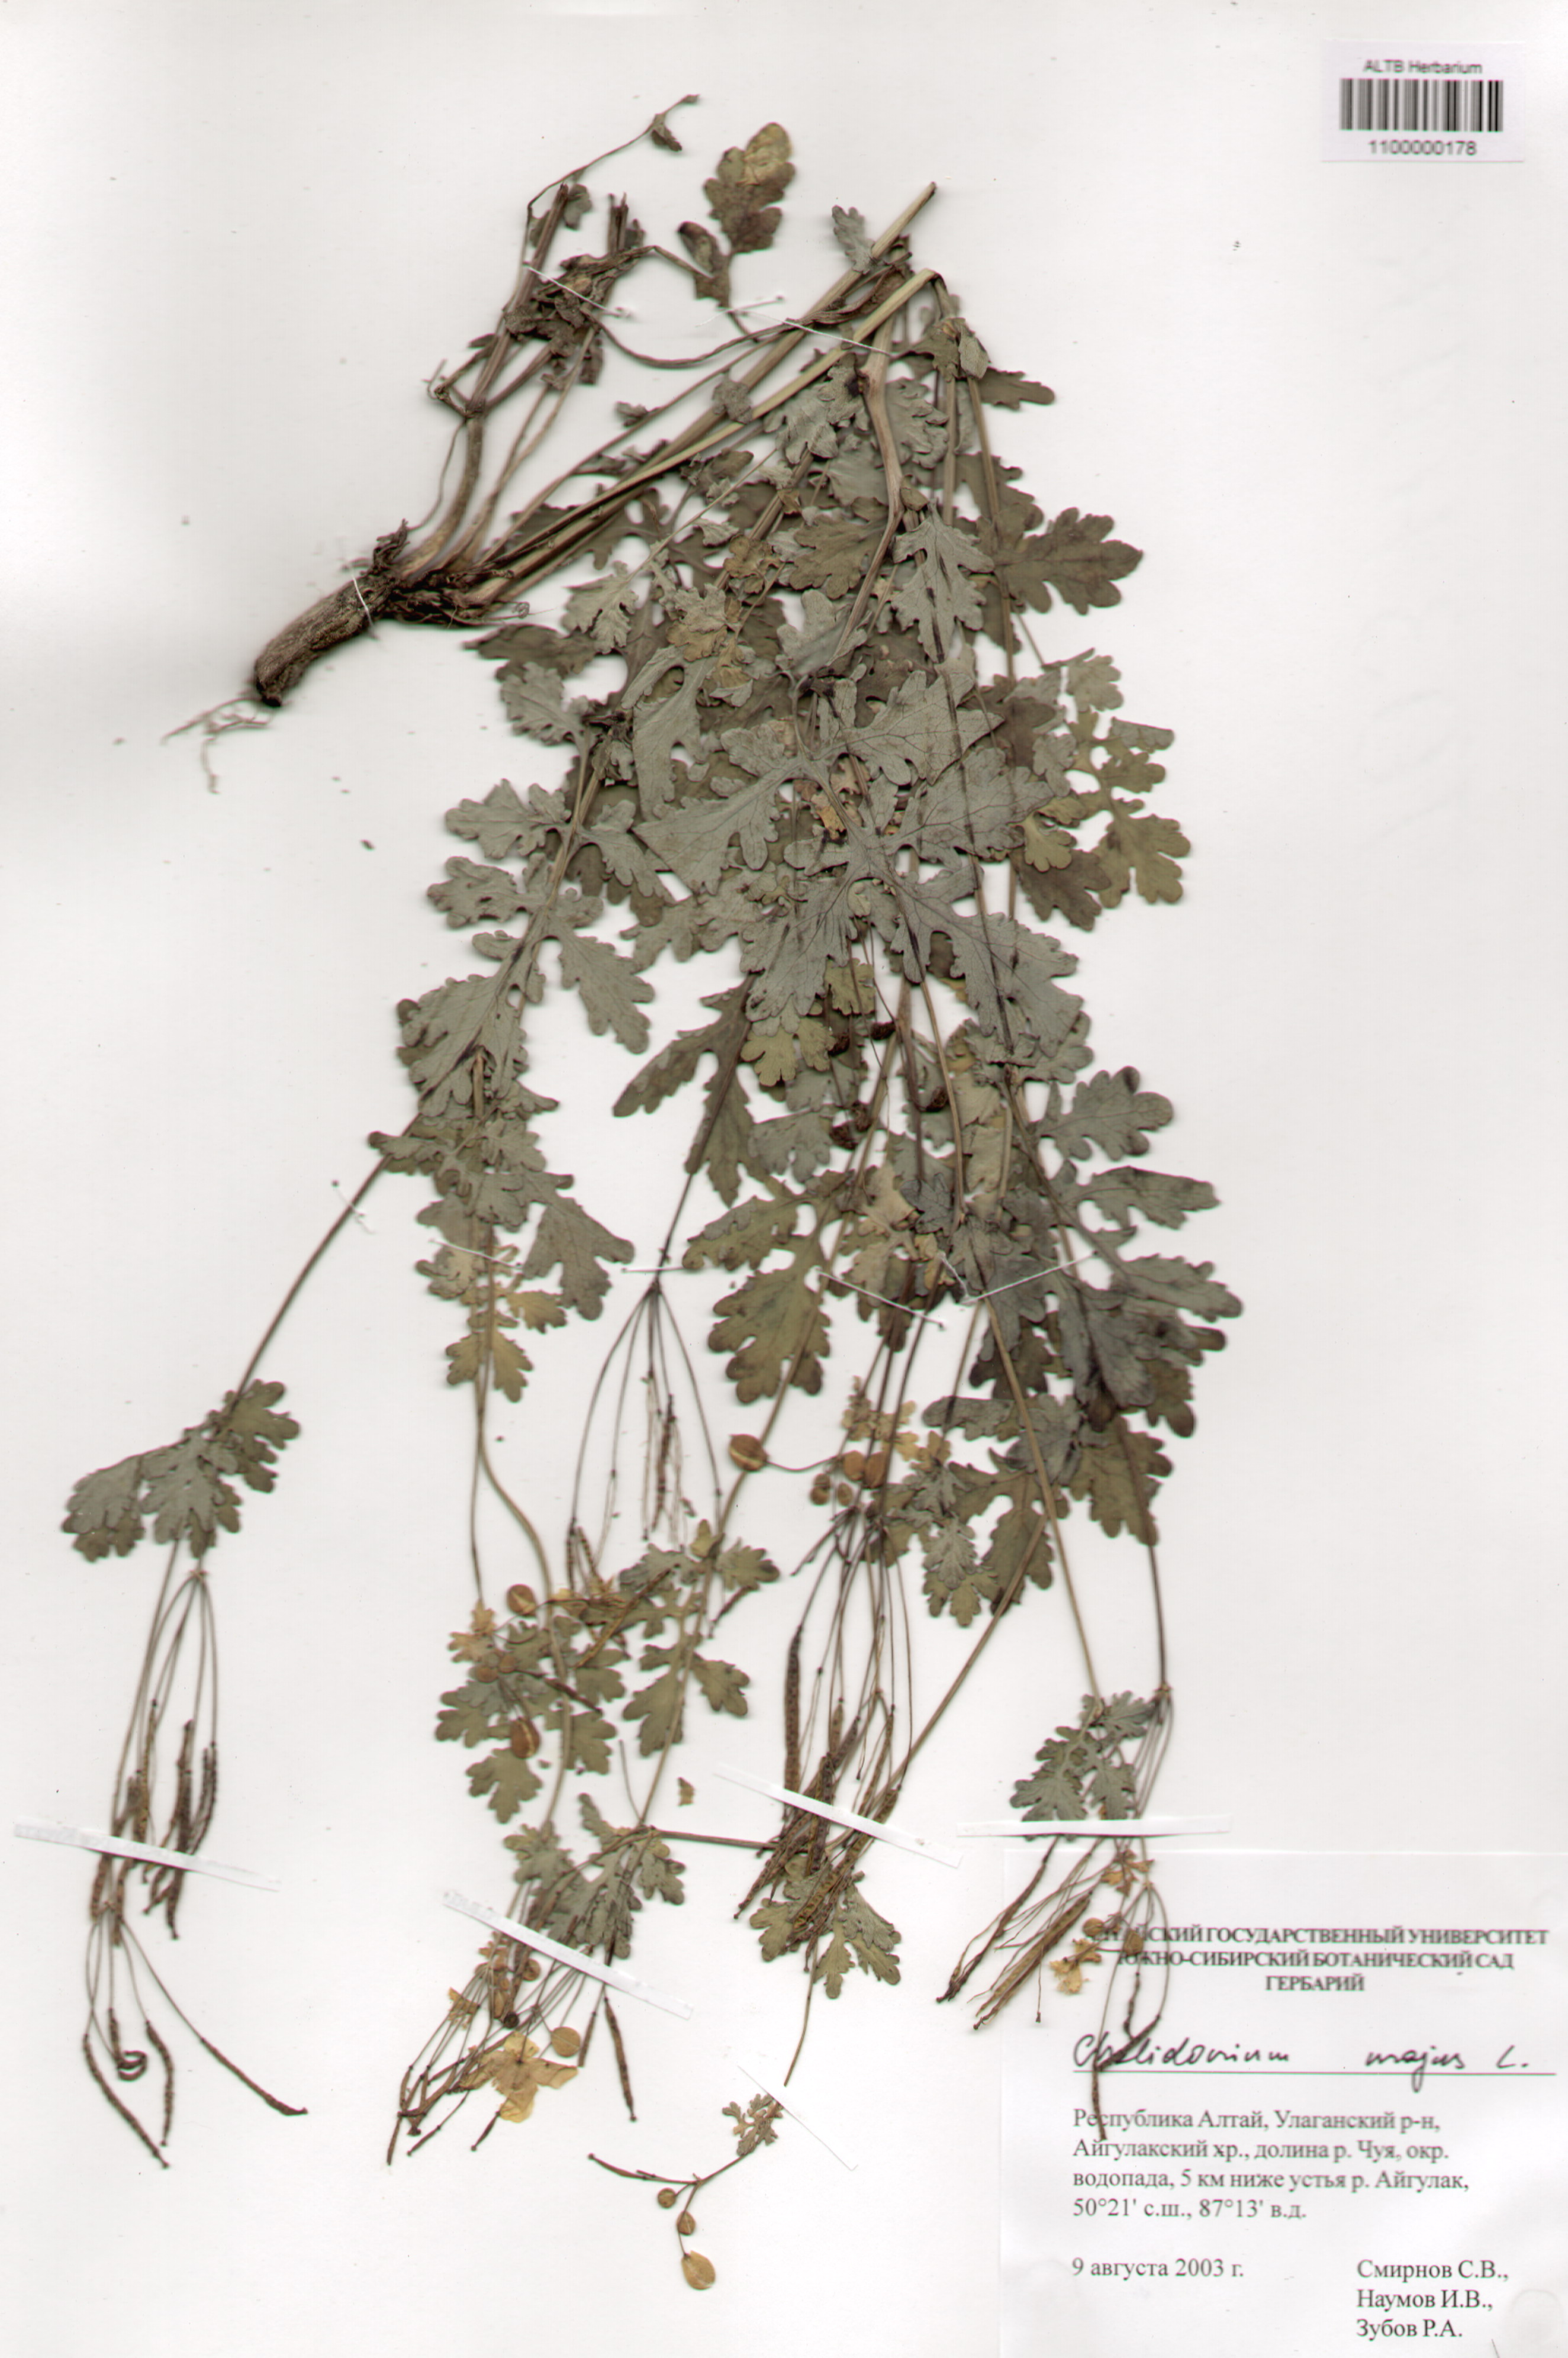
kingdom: Plantae
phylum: Tracheophyta
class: Magnoliopsida
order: Ranunculales
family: Papaveraceae
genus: Chelidonium
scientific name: Chelidonium majus
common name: Greater celandine
